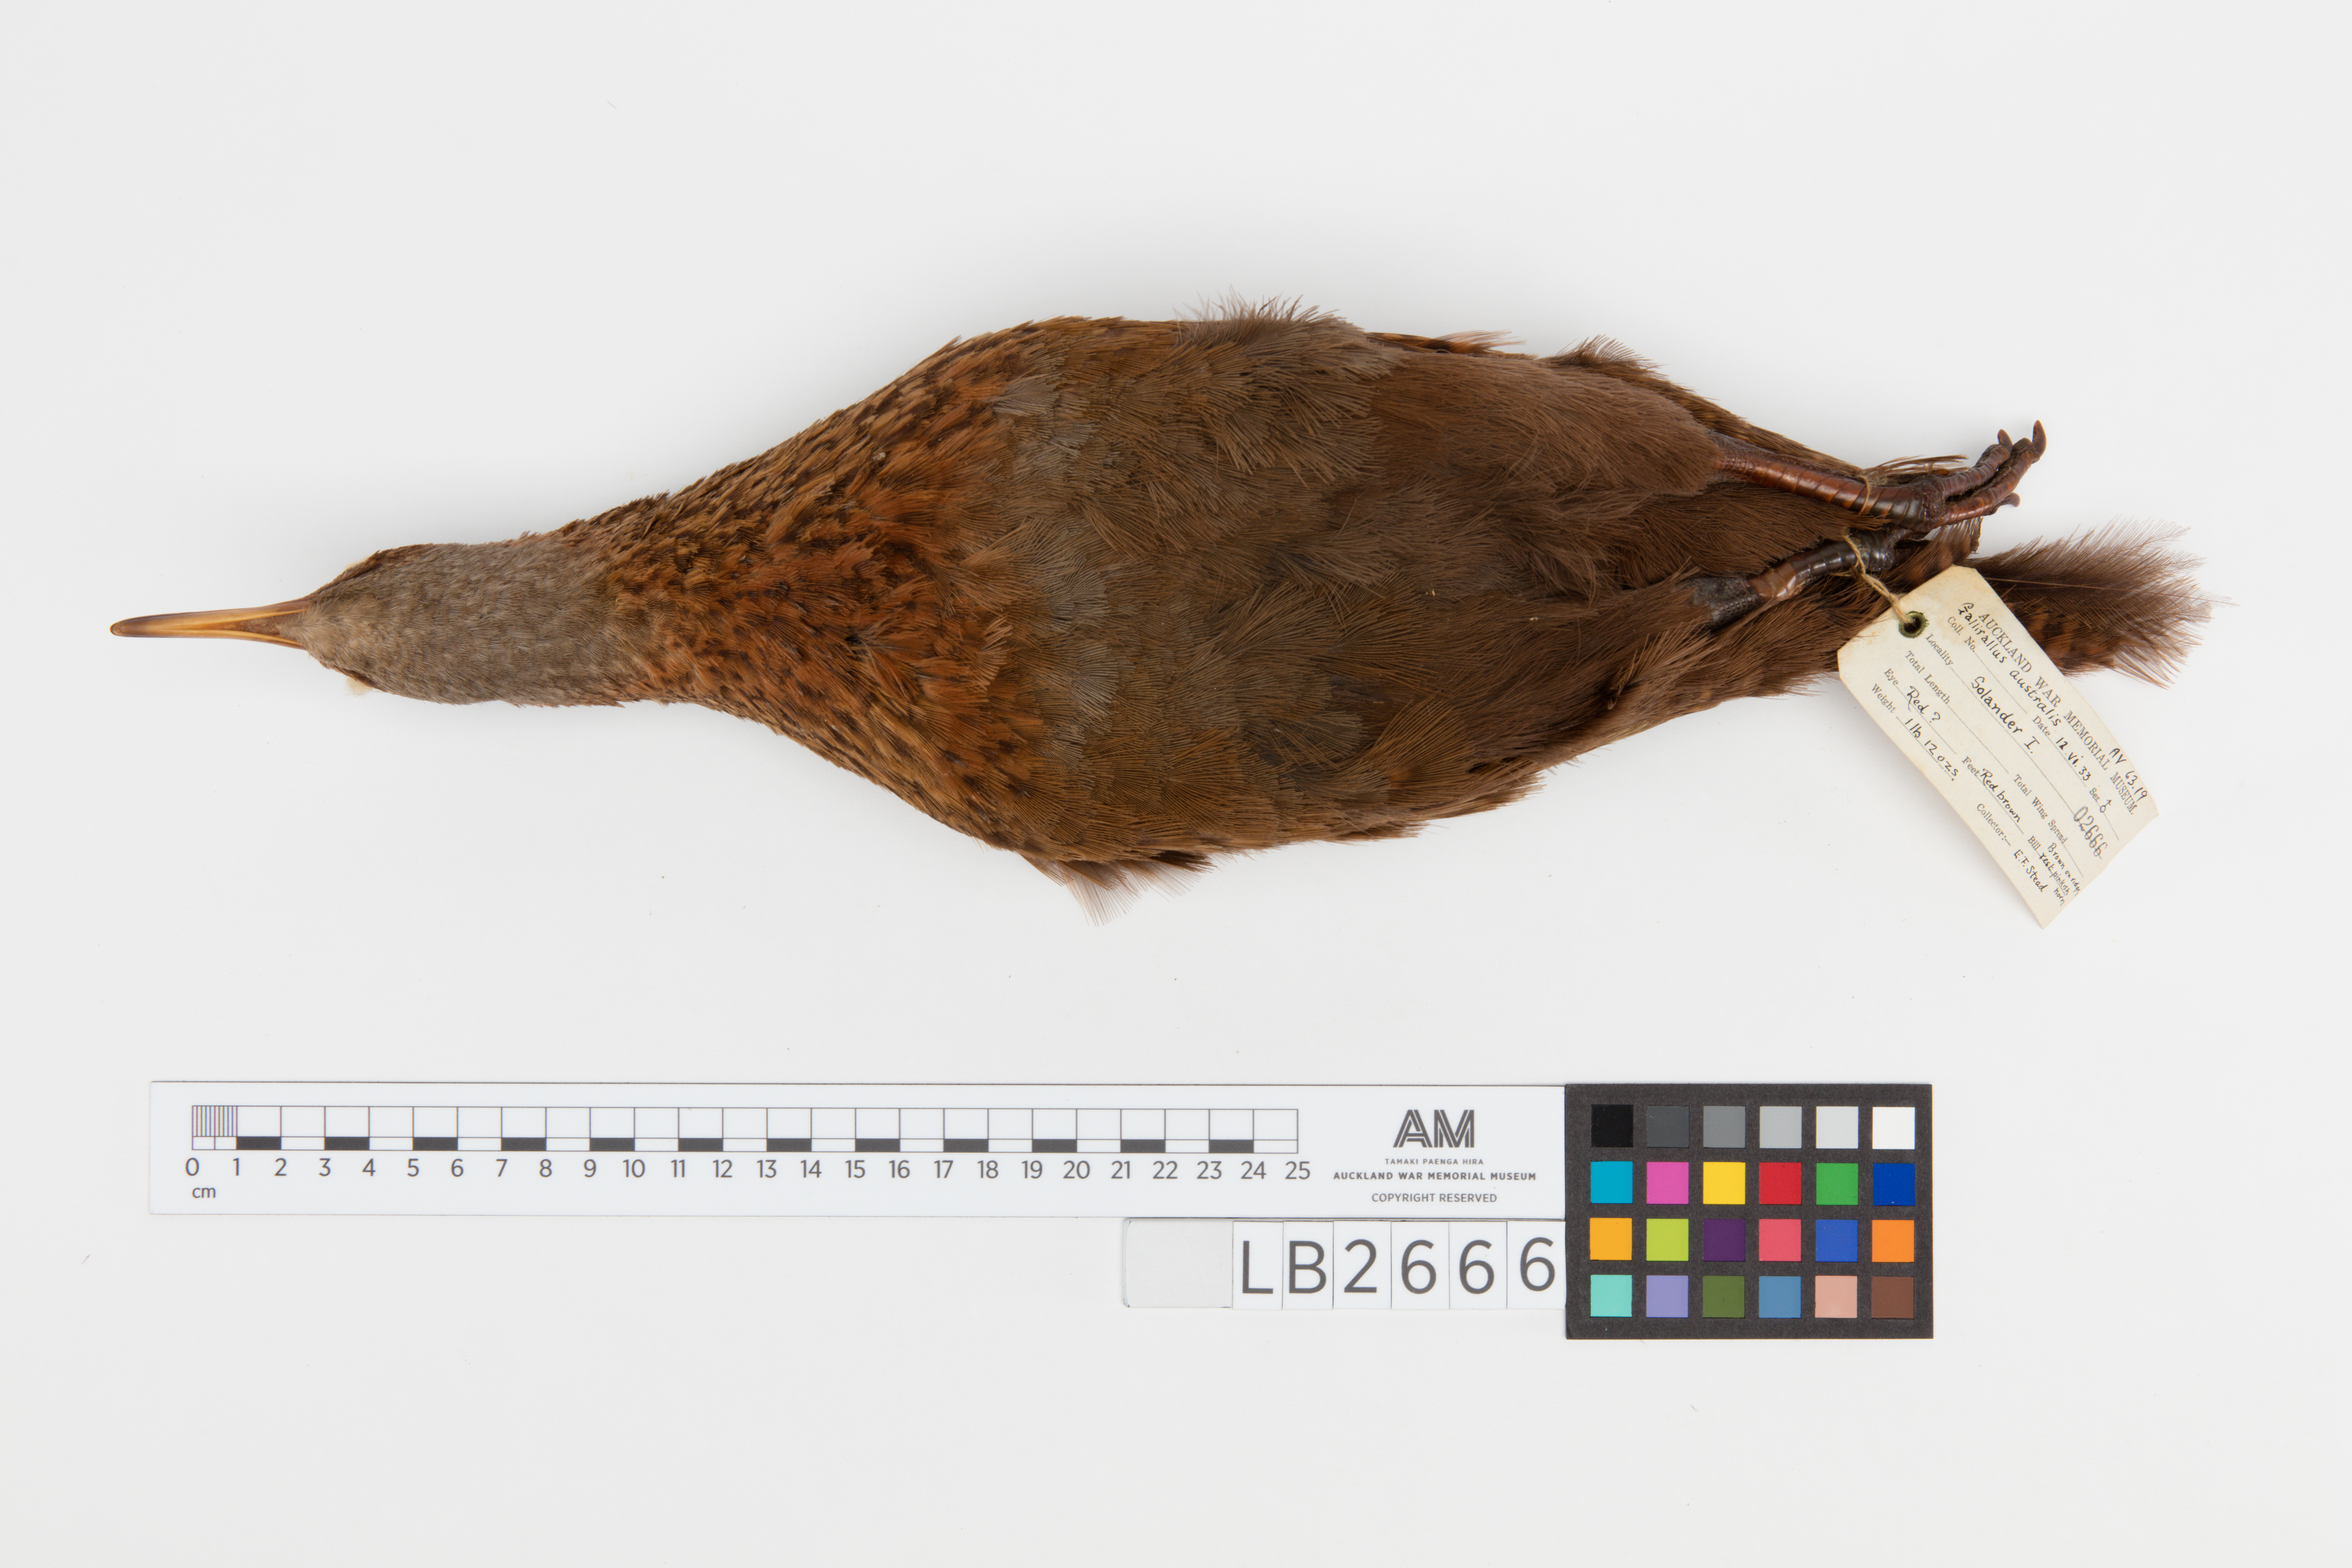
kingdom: Animalia
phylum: Chordata
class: Aves
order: Gruiformes
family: Rallidae
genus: Gallirallus
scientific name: Gallirallus australis
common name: Weka
